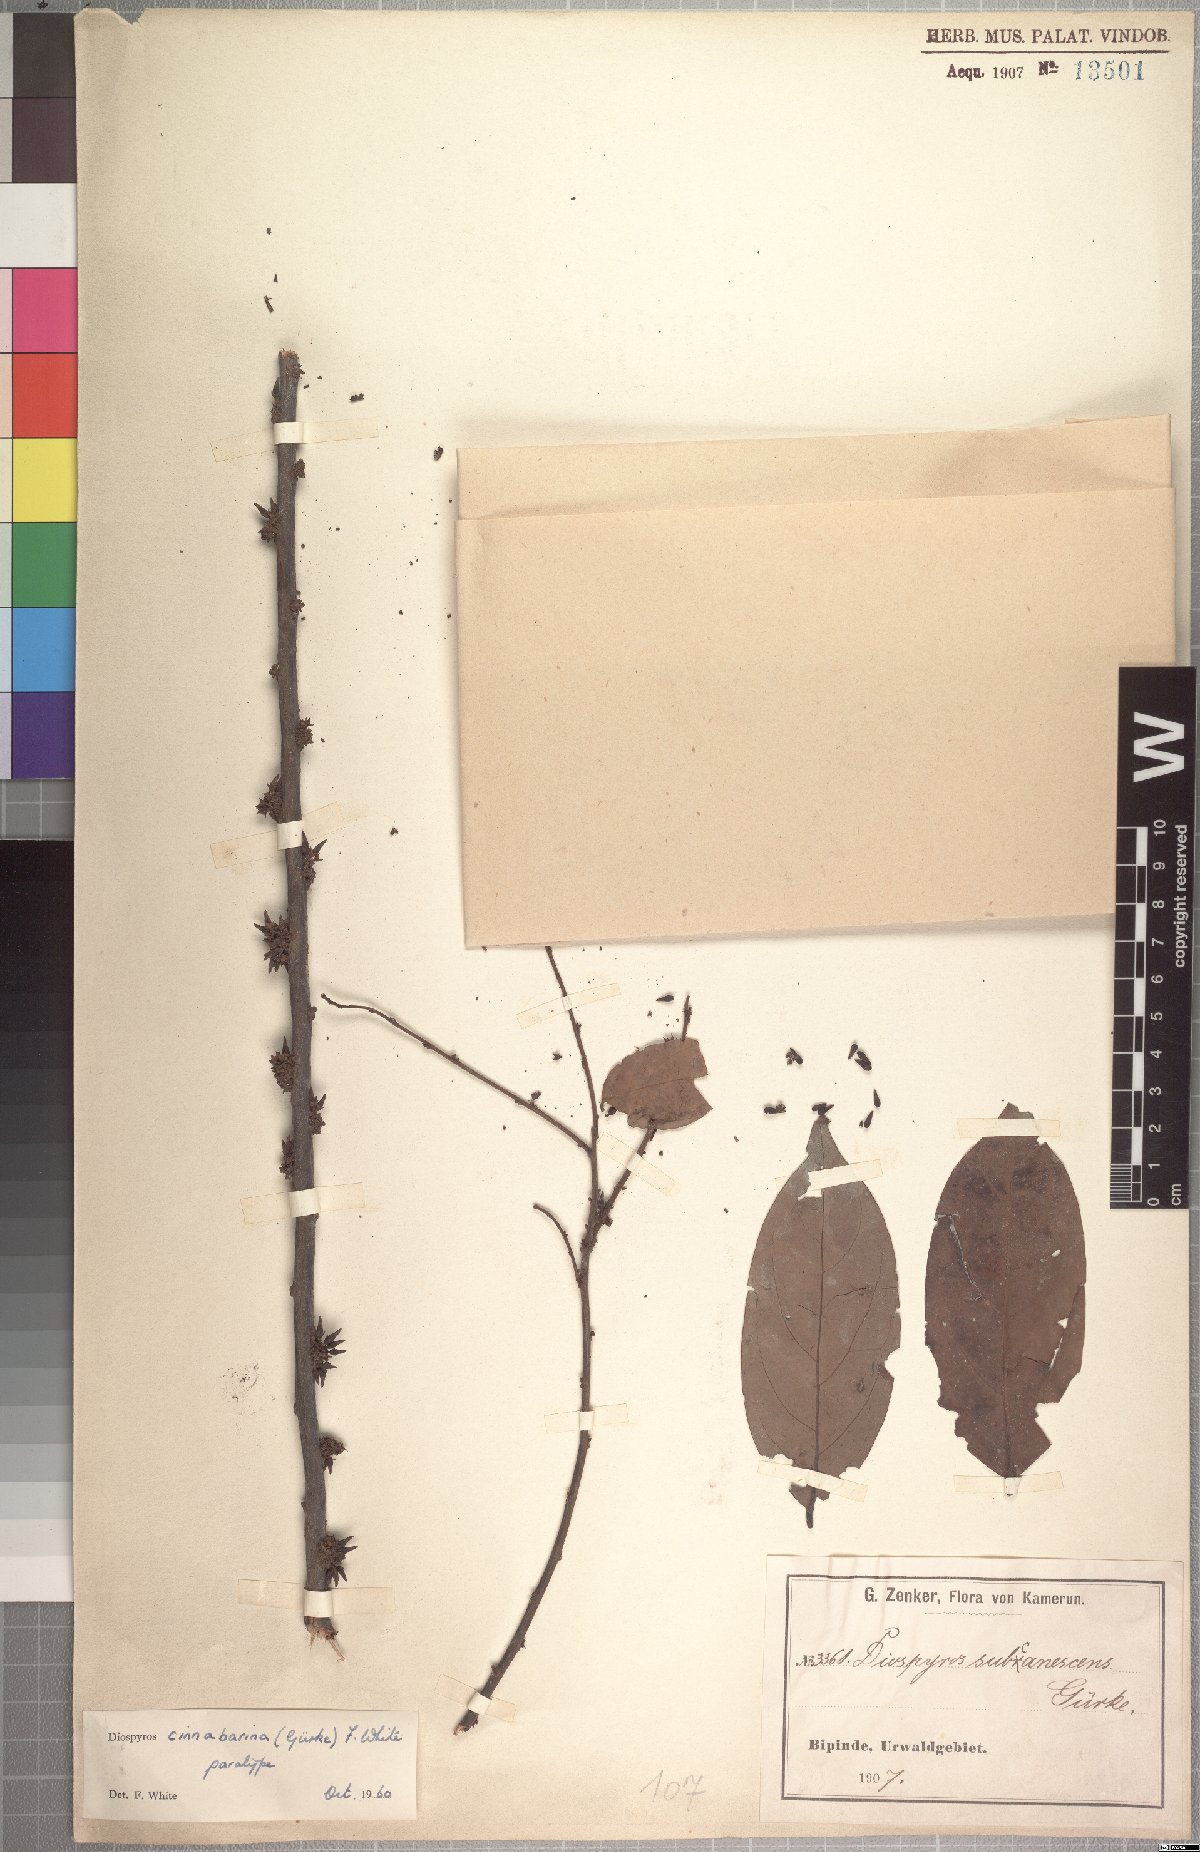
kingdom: Plantae
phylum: Tracheophyta
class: Magnoliopsida
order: Ericales
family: Ebenaceae
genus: Diospyros
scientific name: Diospyros cinnabarina
